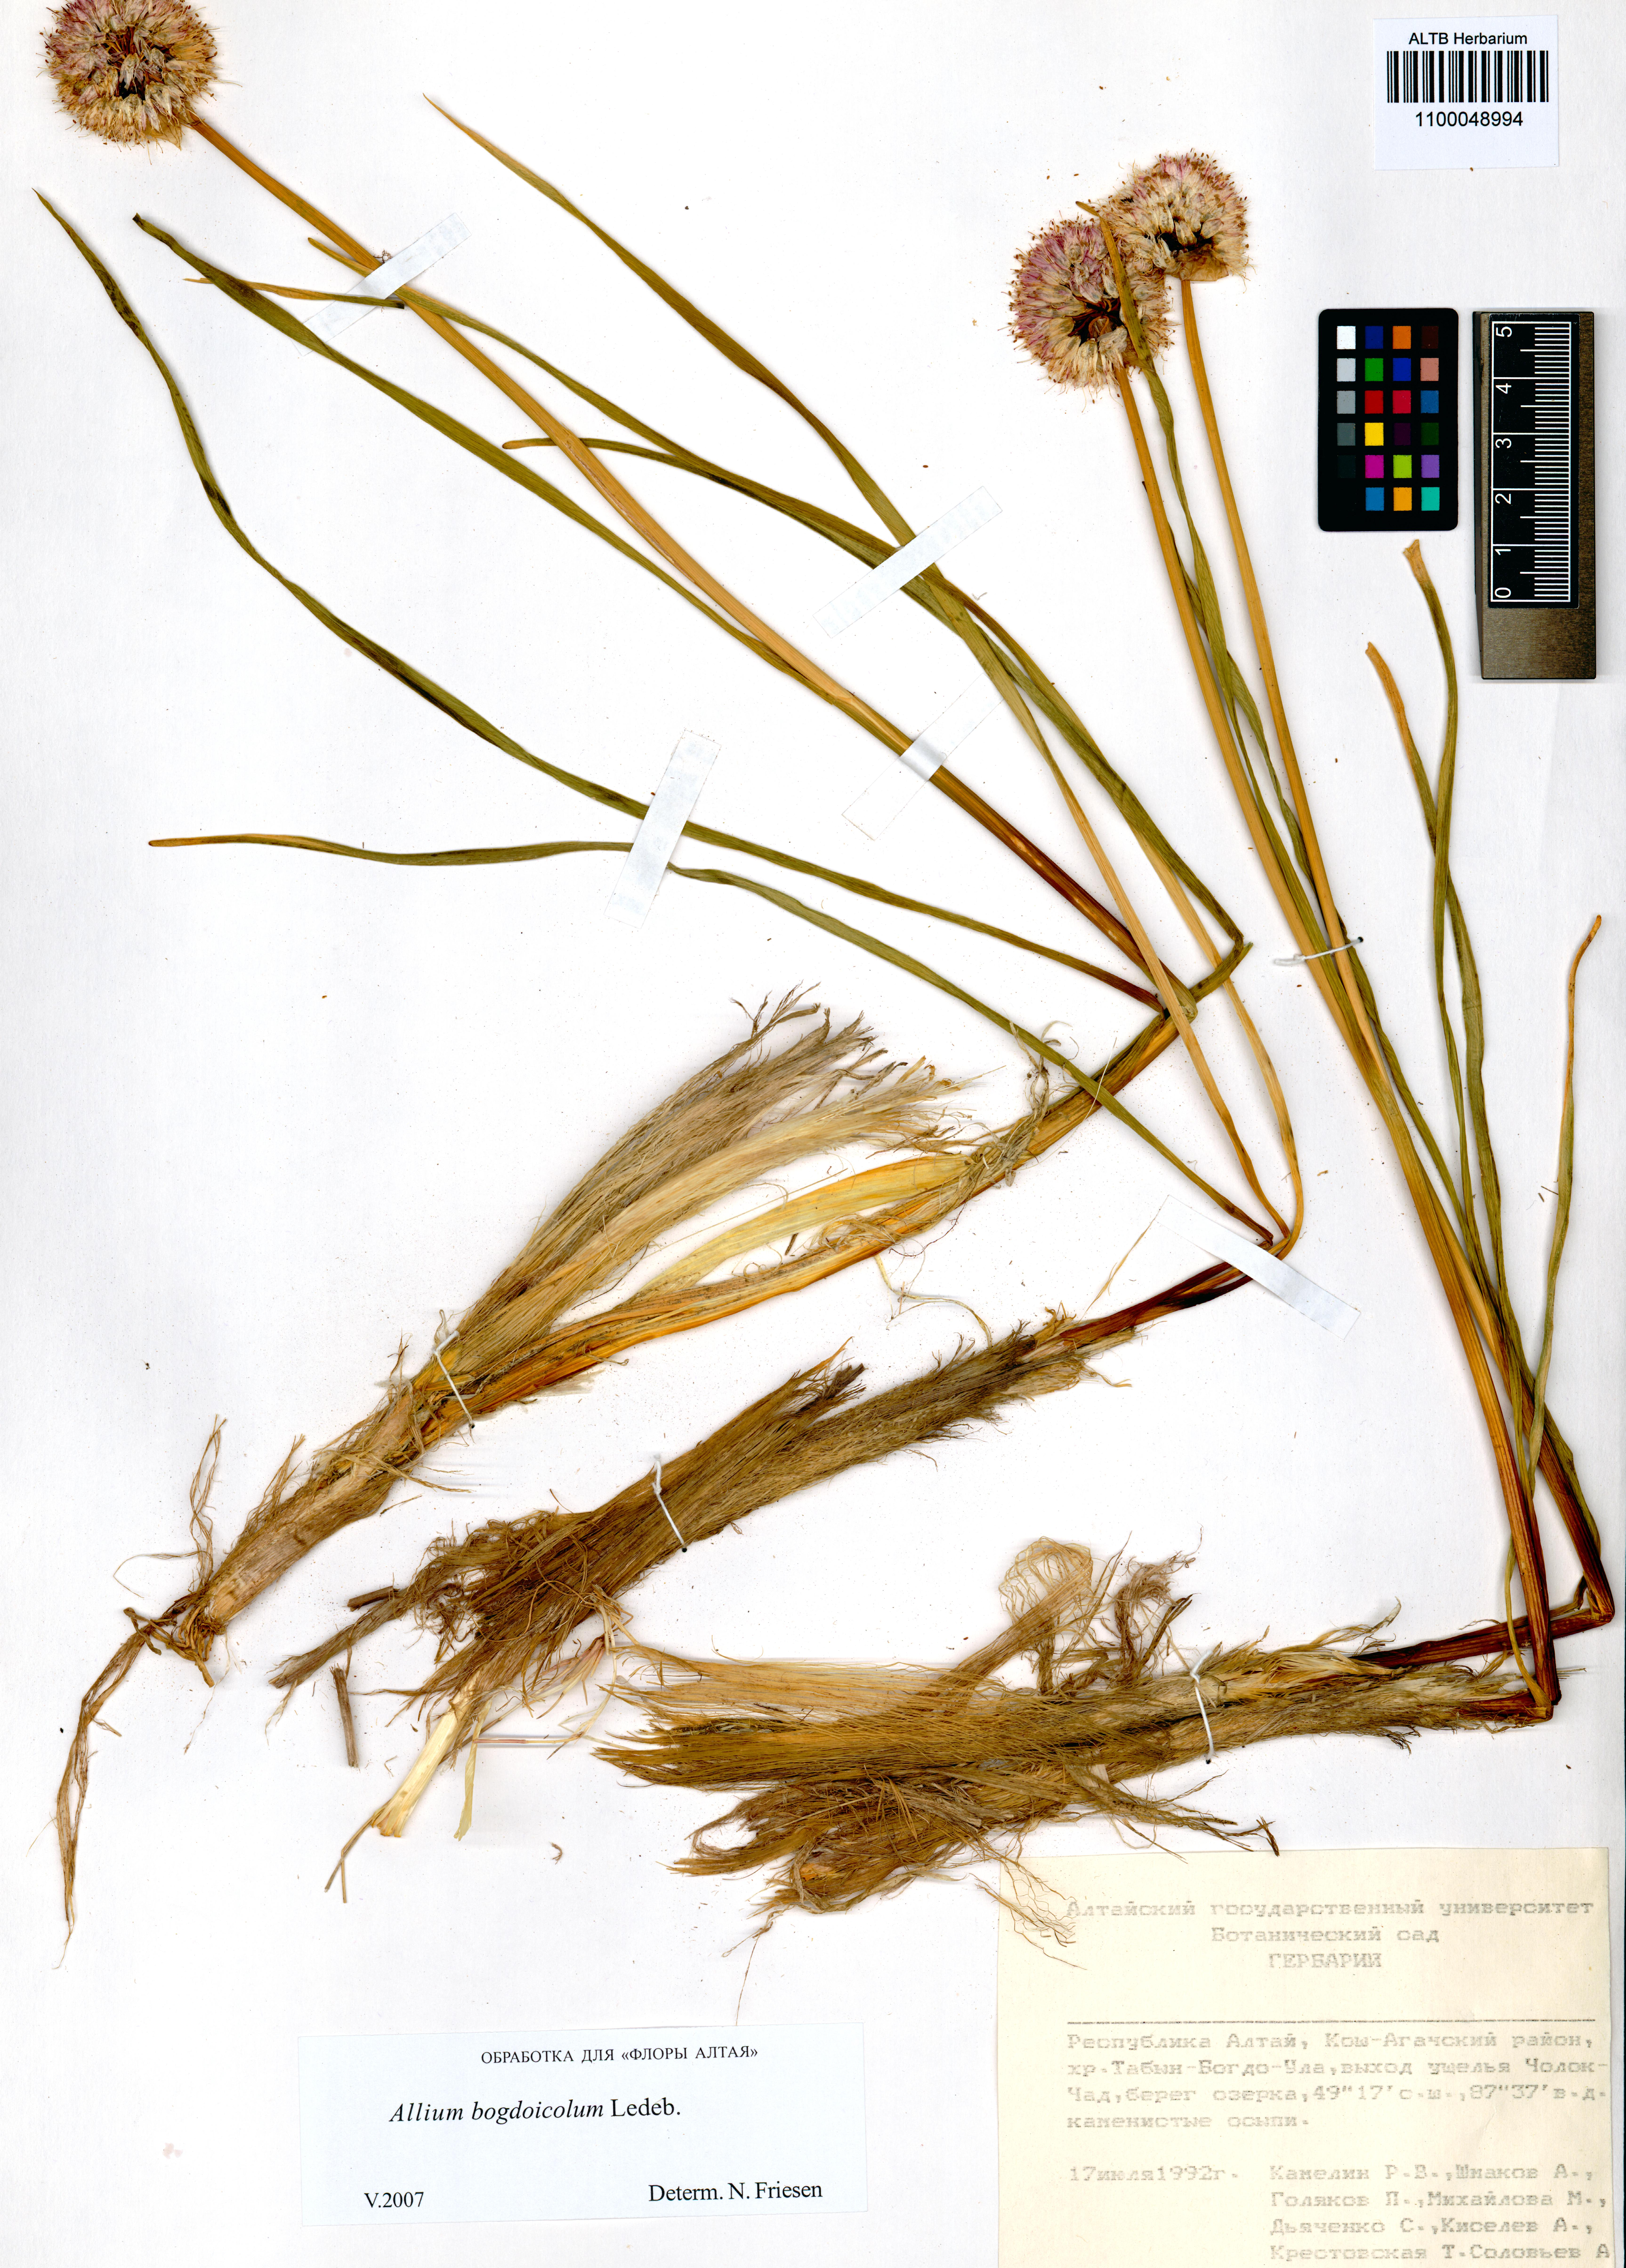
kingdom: Plantae
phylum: Tracheophyta
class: Liliopsida
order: Asparagales
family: Amaryllidaceae
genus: Allium
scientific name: Allium schrenkii
